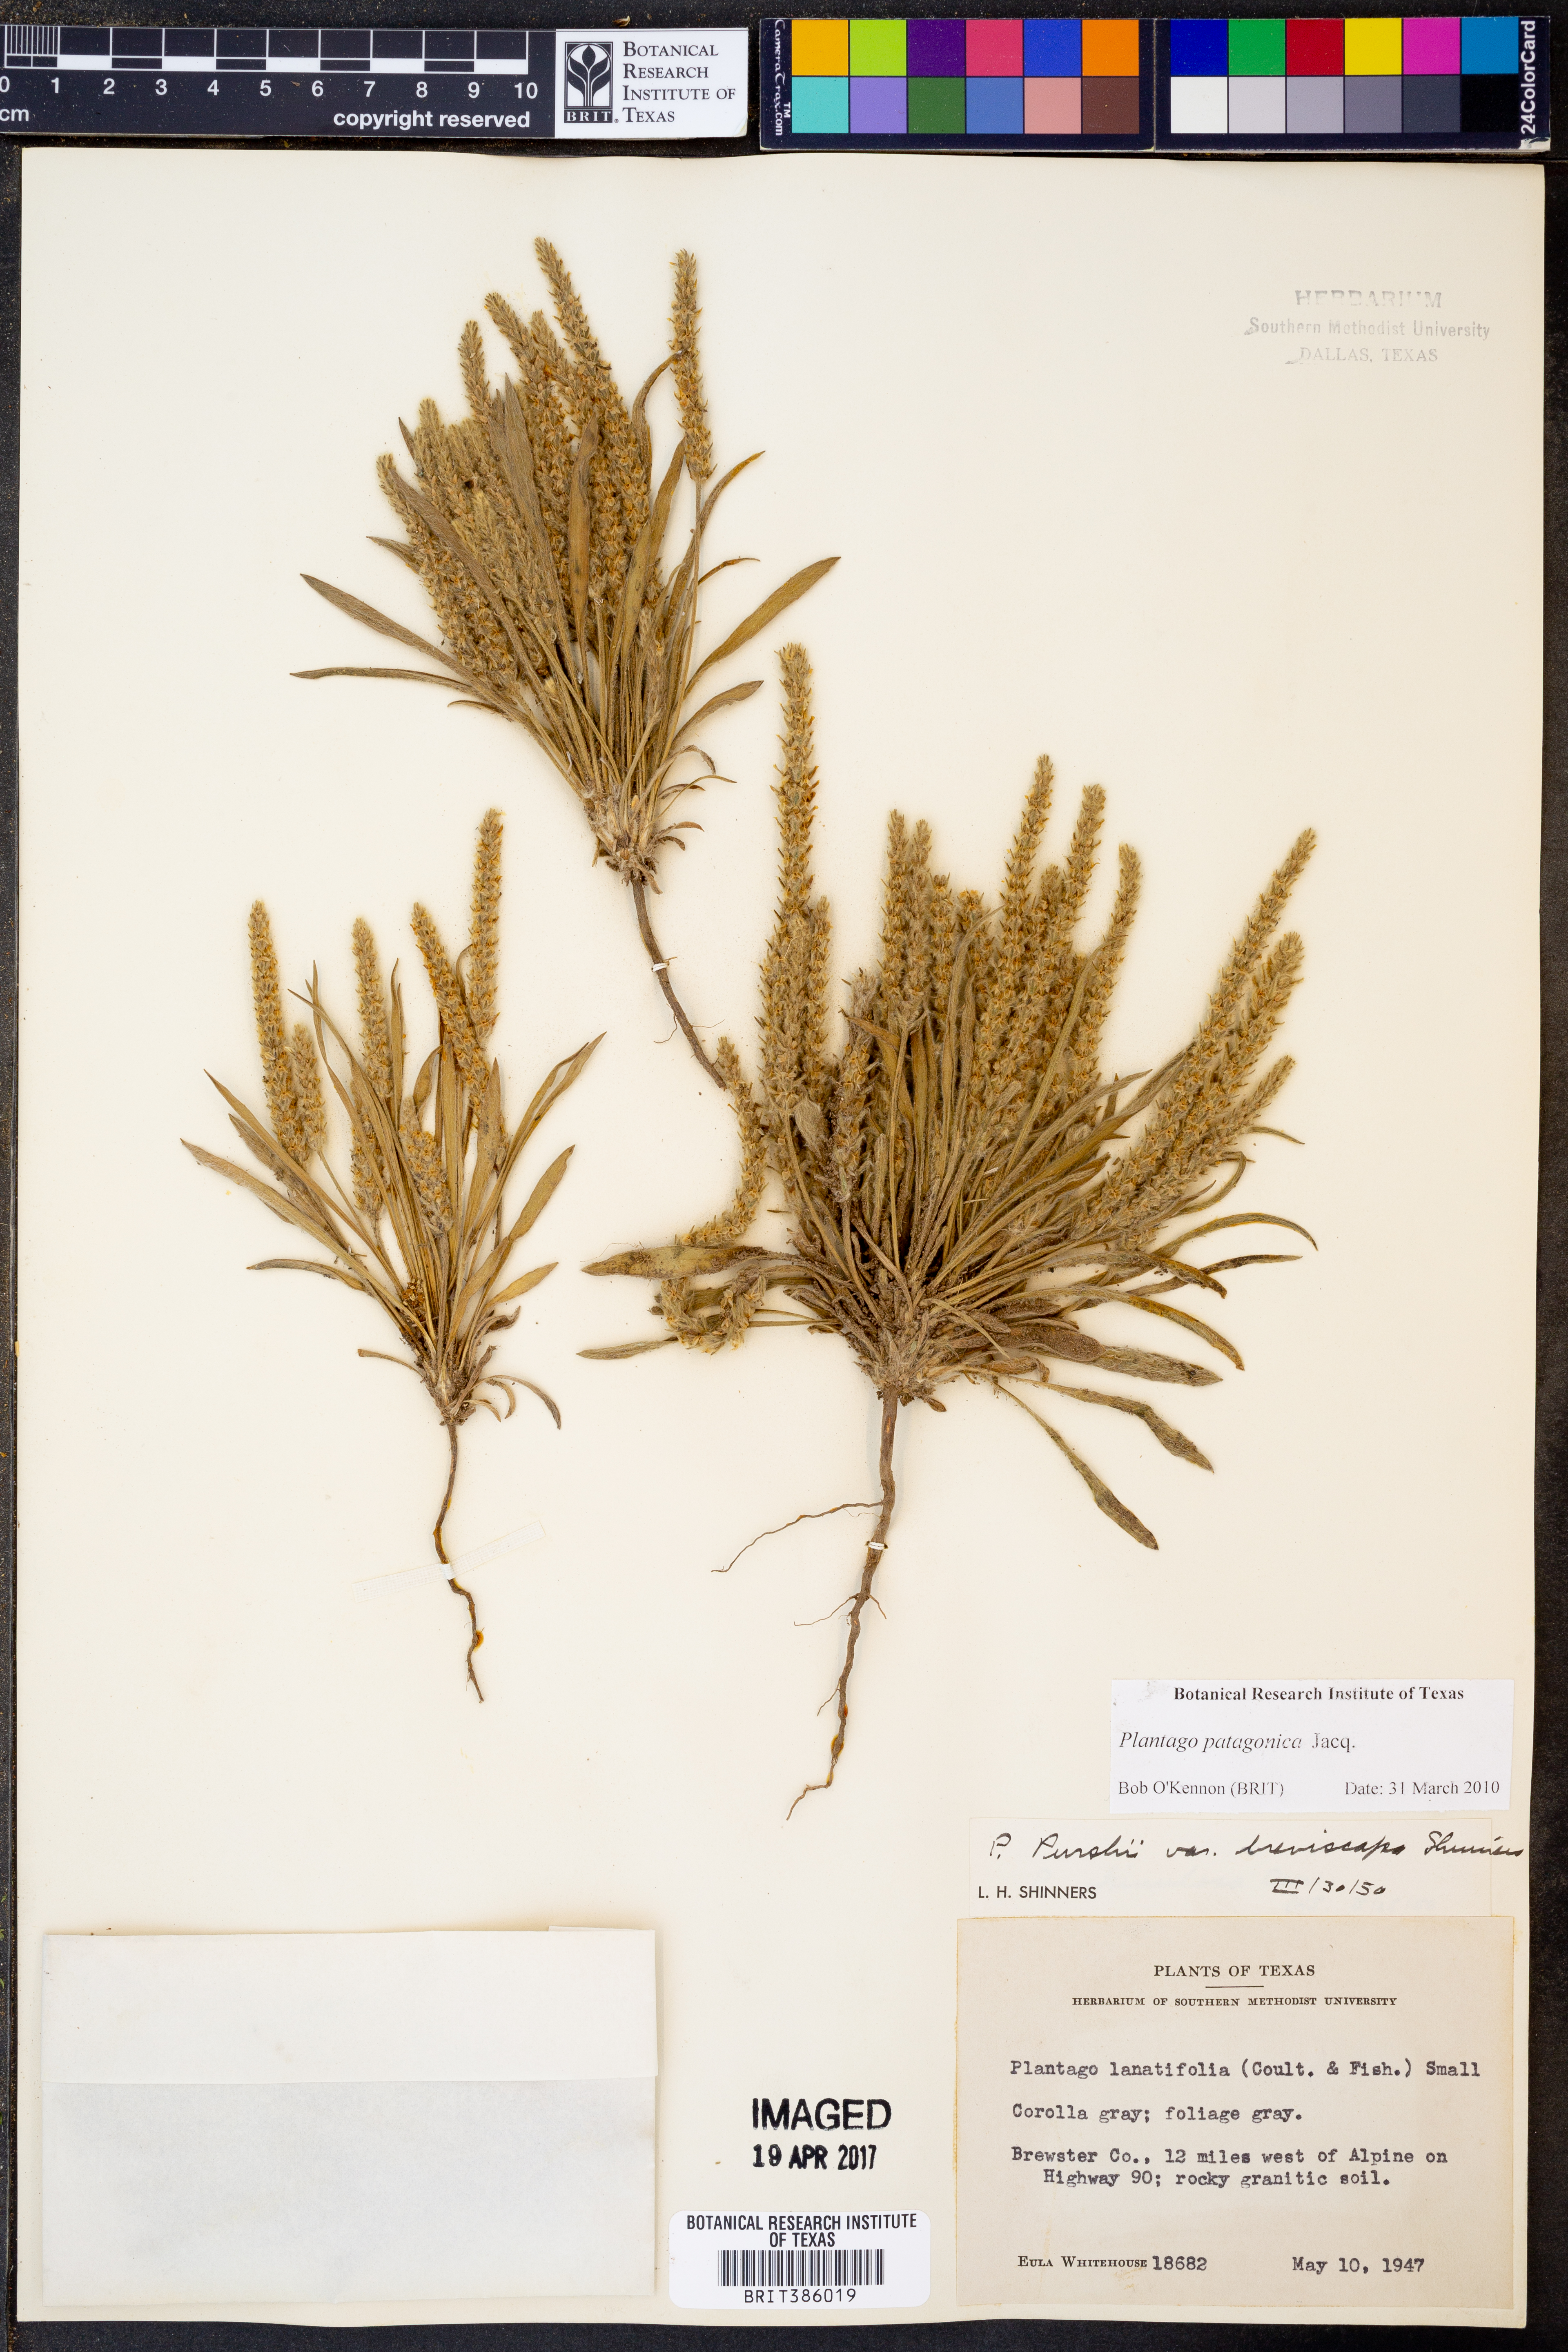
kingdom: Plantae
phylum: Tracheophyta
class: Magnoliopsida
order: Lamiales
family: Plantaginaceae
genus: Plantago
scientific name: Plantago patagonica
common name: Patagonia indian-wheat
